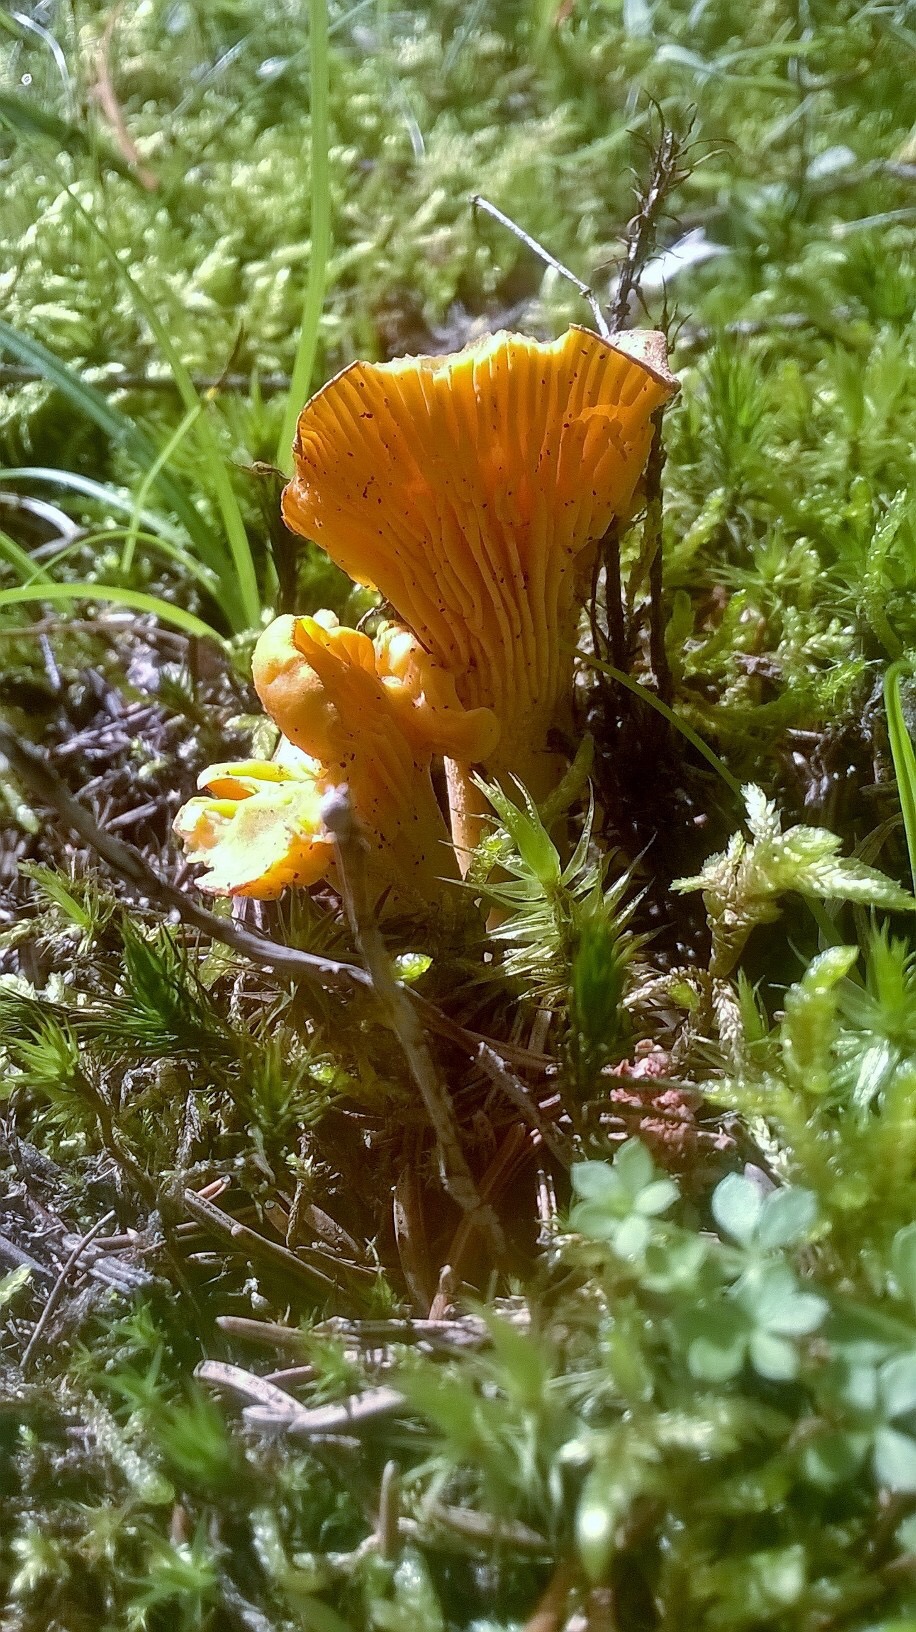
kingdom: Fungi
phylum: Basidiomycota
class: Agaricomycetes
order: Cantharellales
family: Hydnaceae
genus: Cantharellus
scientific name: Cantharellus cibarius
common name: almindelig kantarel
